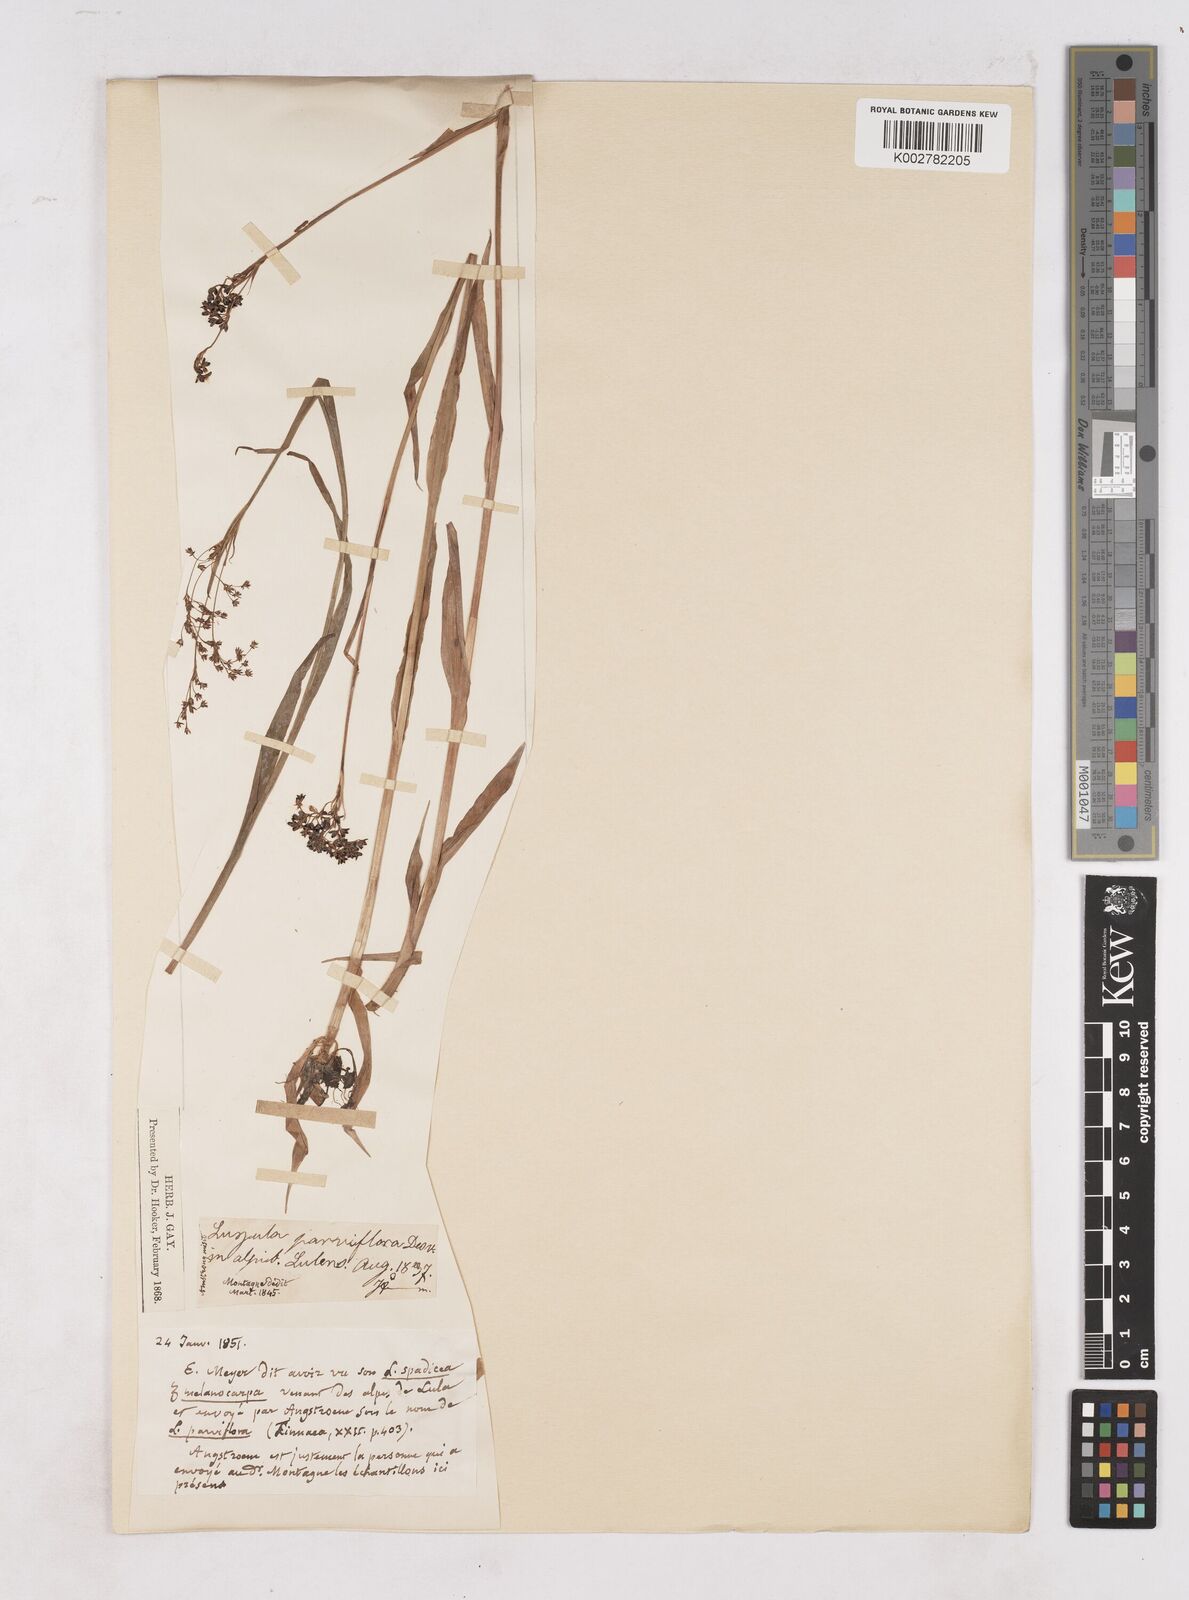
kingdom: Plantae
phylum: Tracheophyta
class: Liliopsida
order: Poales
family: Juncaceae
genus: Luzula
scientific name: Luzula parviflora
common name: Millet woodrush
